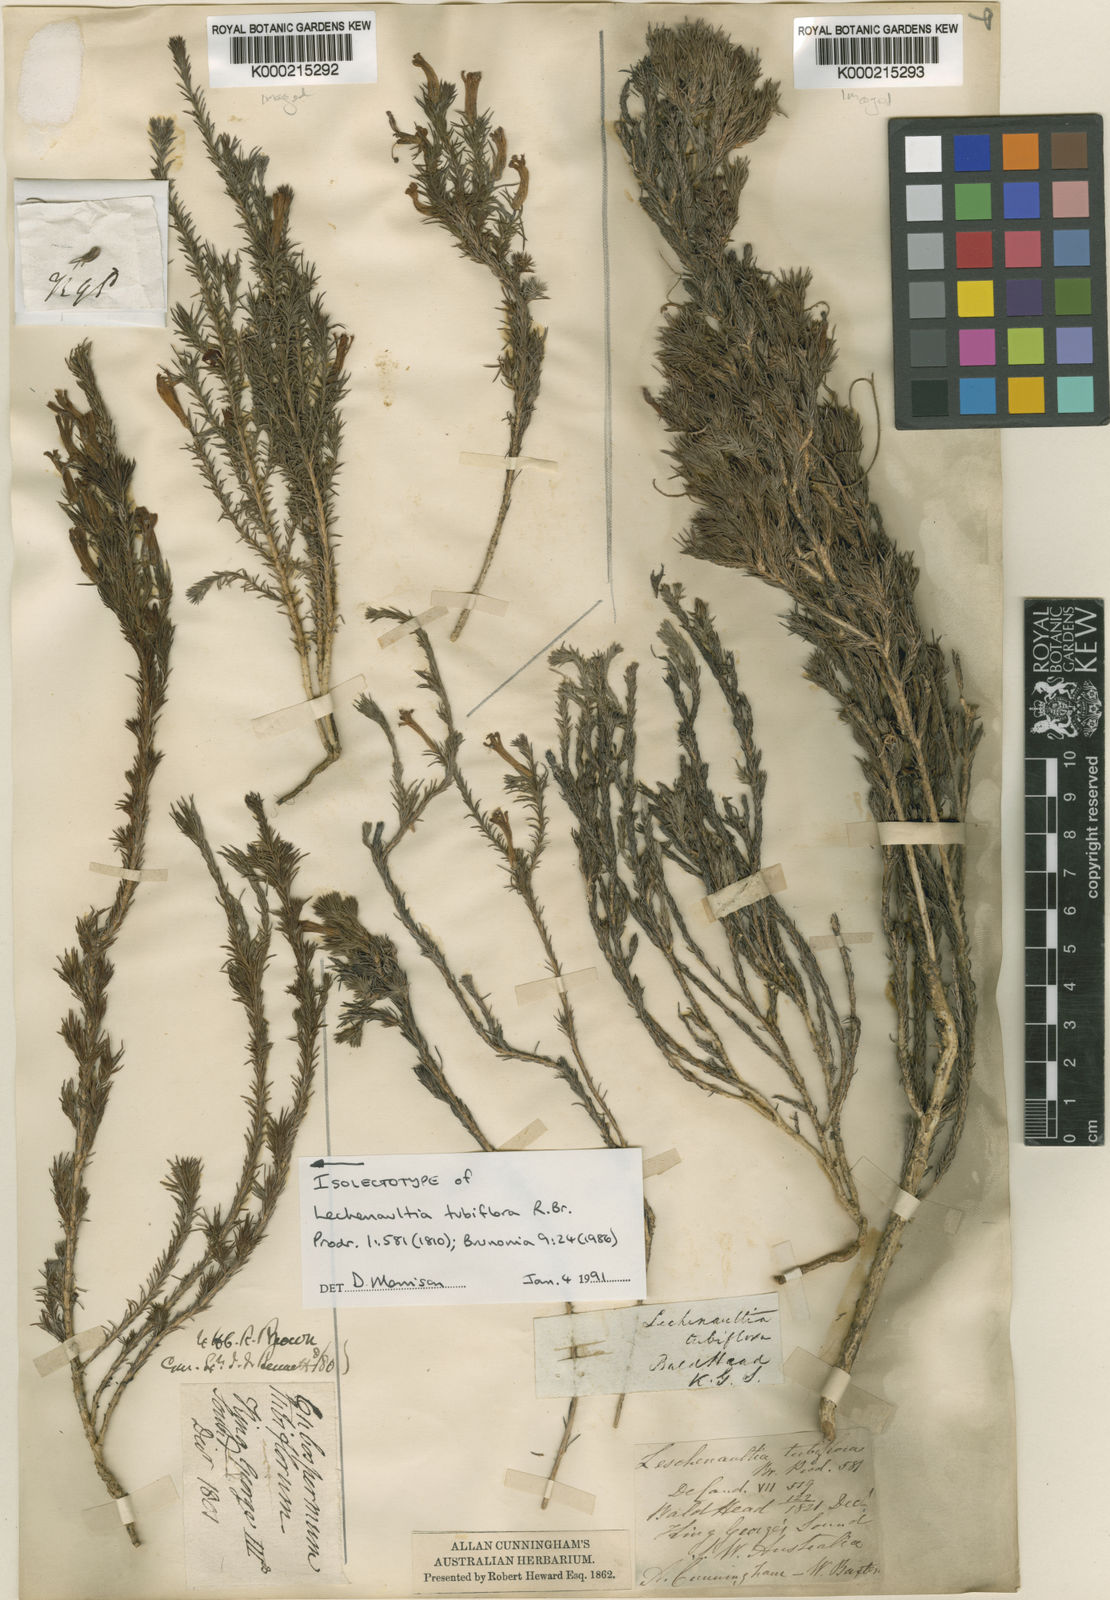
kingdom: Plantae
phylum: Tracheophyta
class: Magnoliopsida
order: Asterales
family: Goodeniaceae
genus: Leschenaultia
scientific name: Leschenaultia tubiflora
